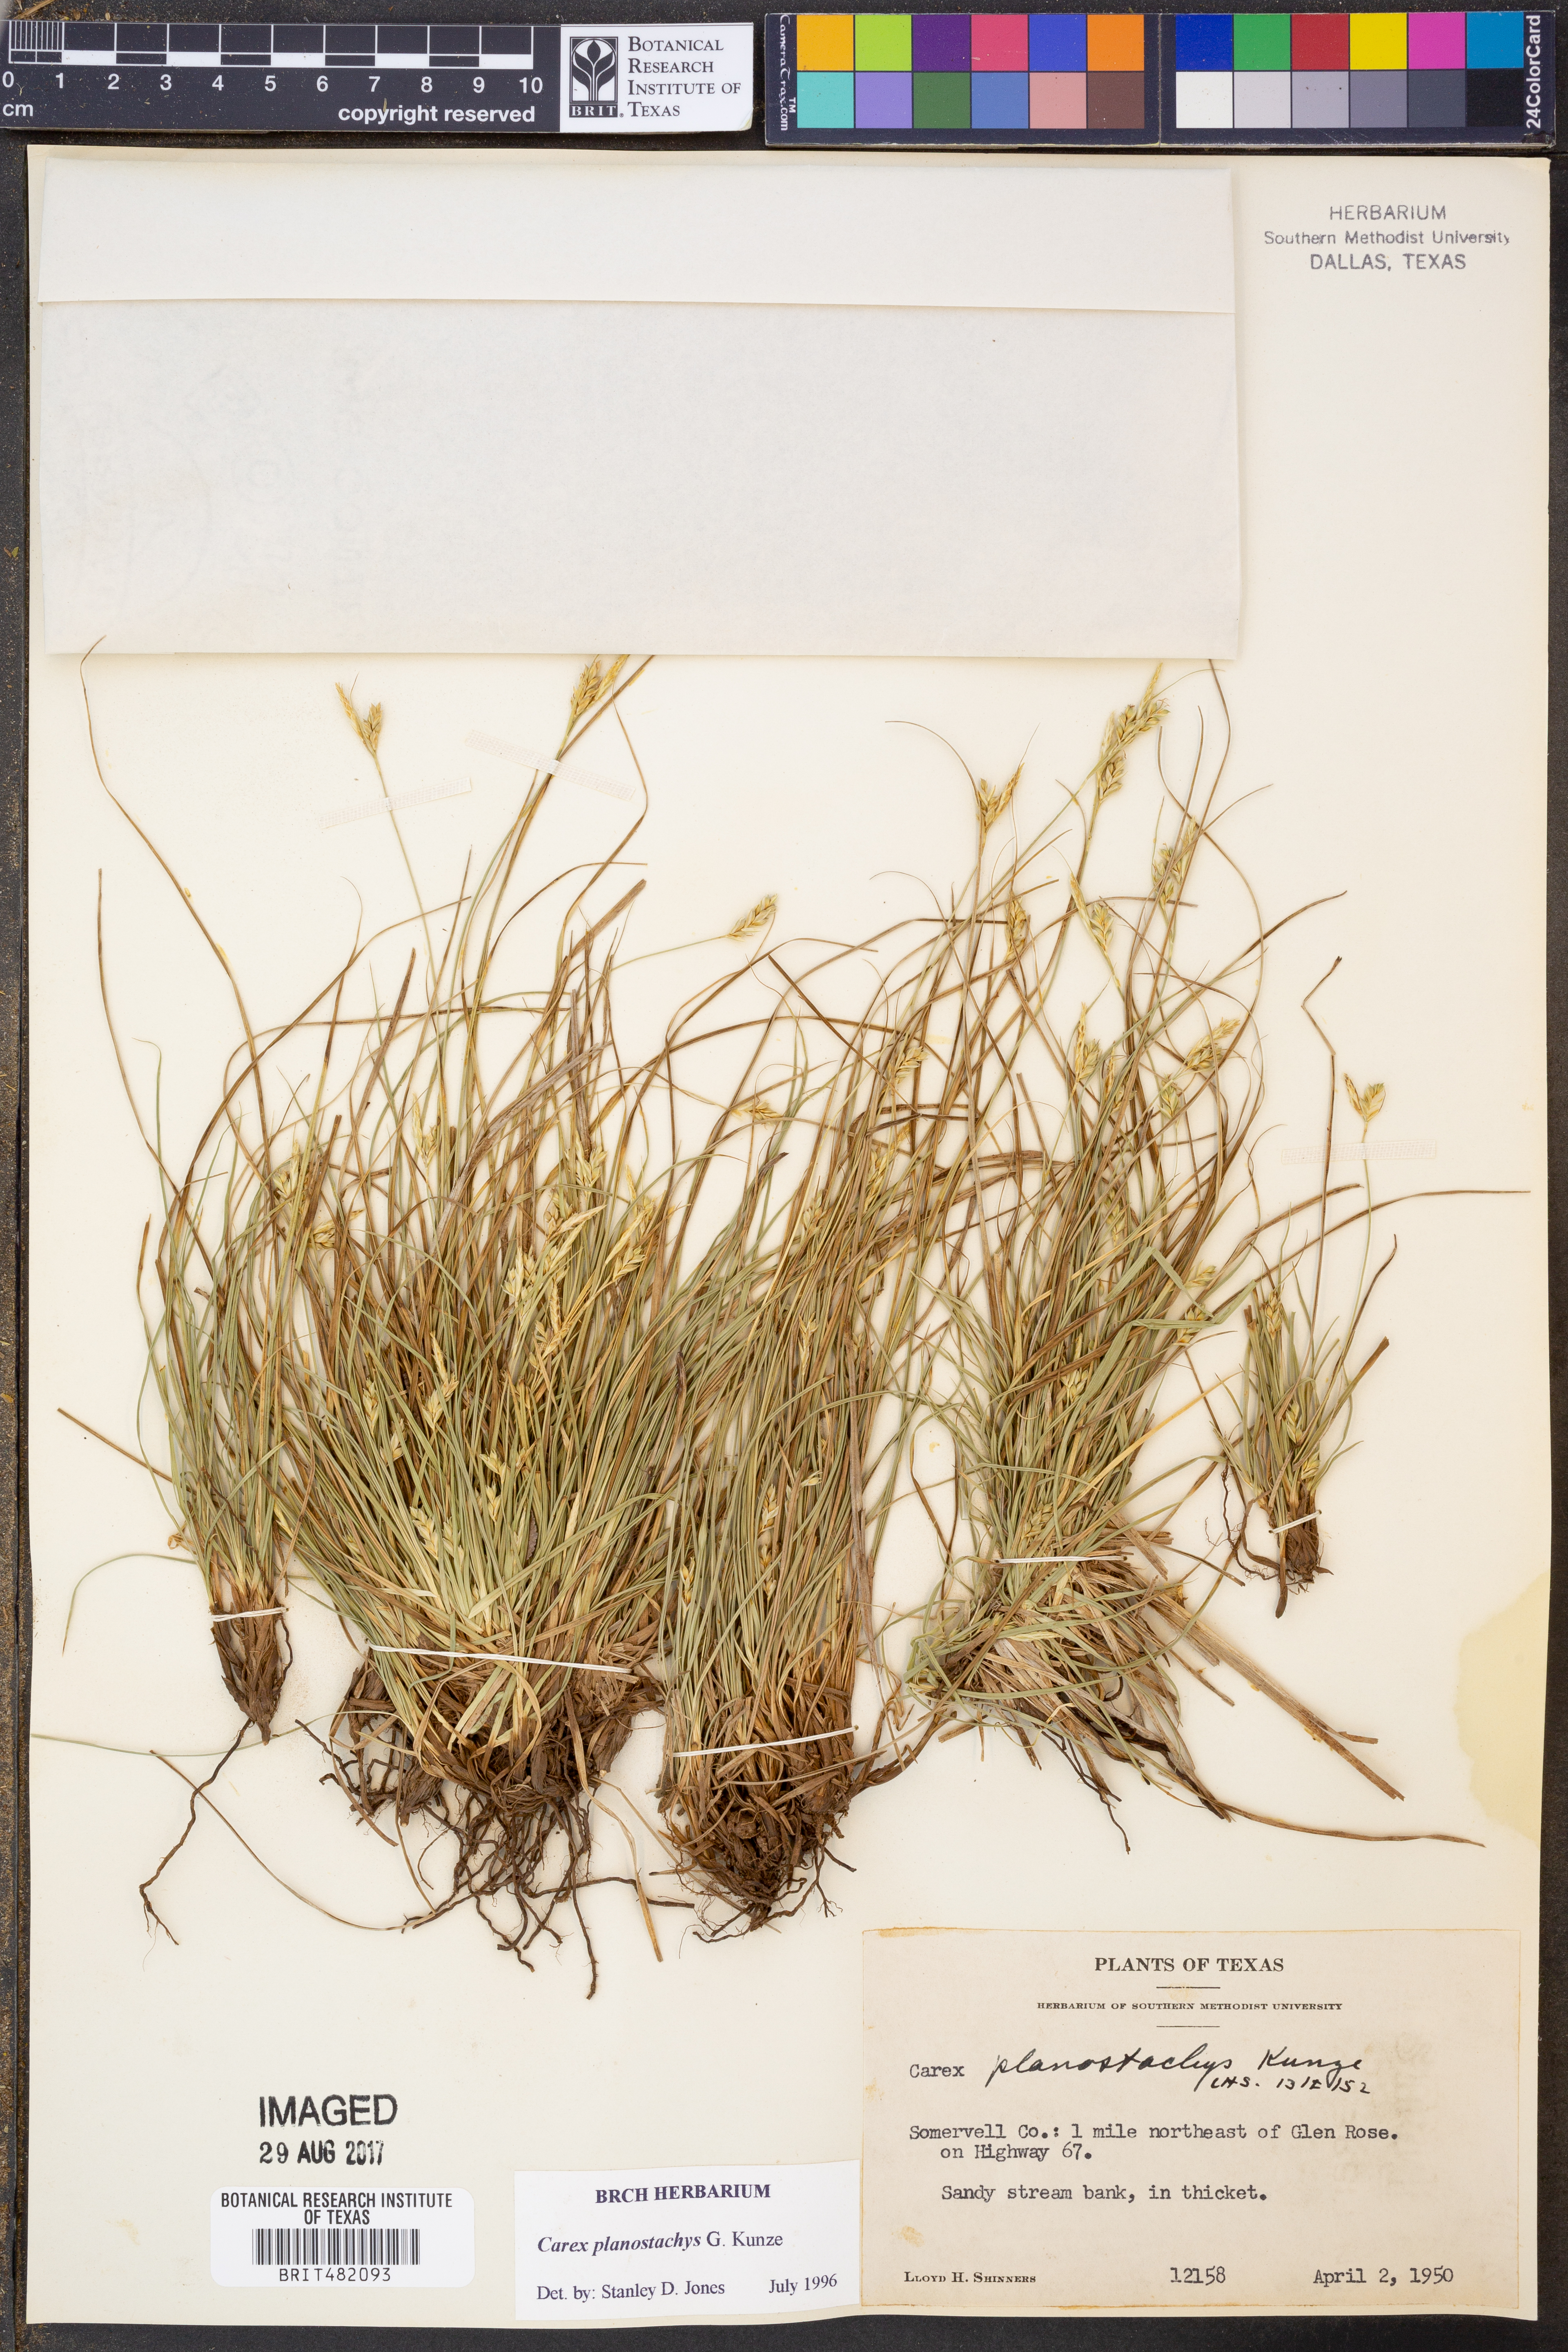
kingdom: Plantae
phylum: Tracheophyta
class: Liliopsida
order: Poales
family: Cyperaceae
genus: Carex
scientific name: Carex planostachys
